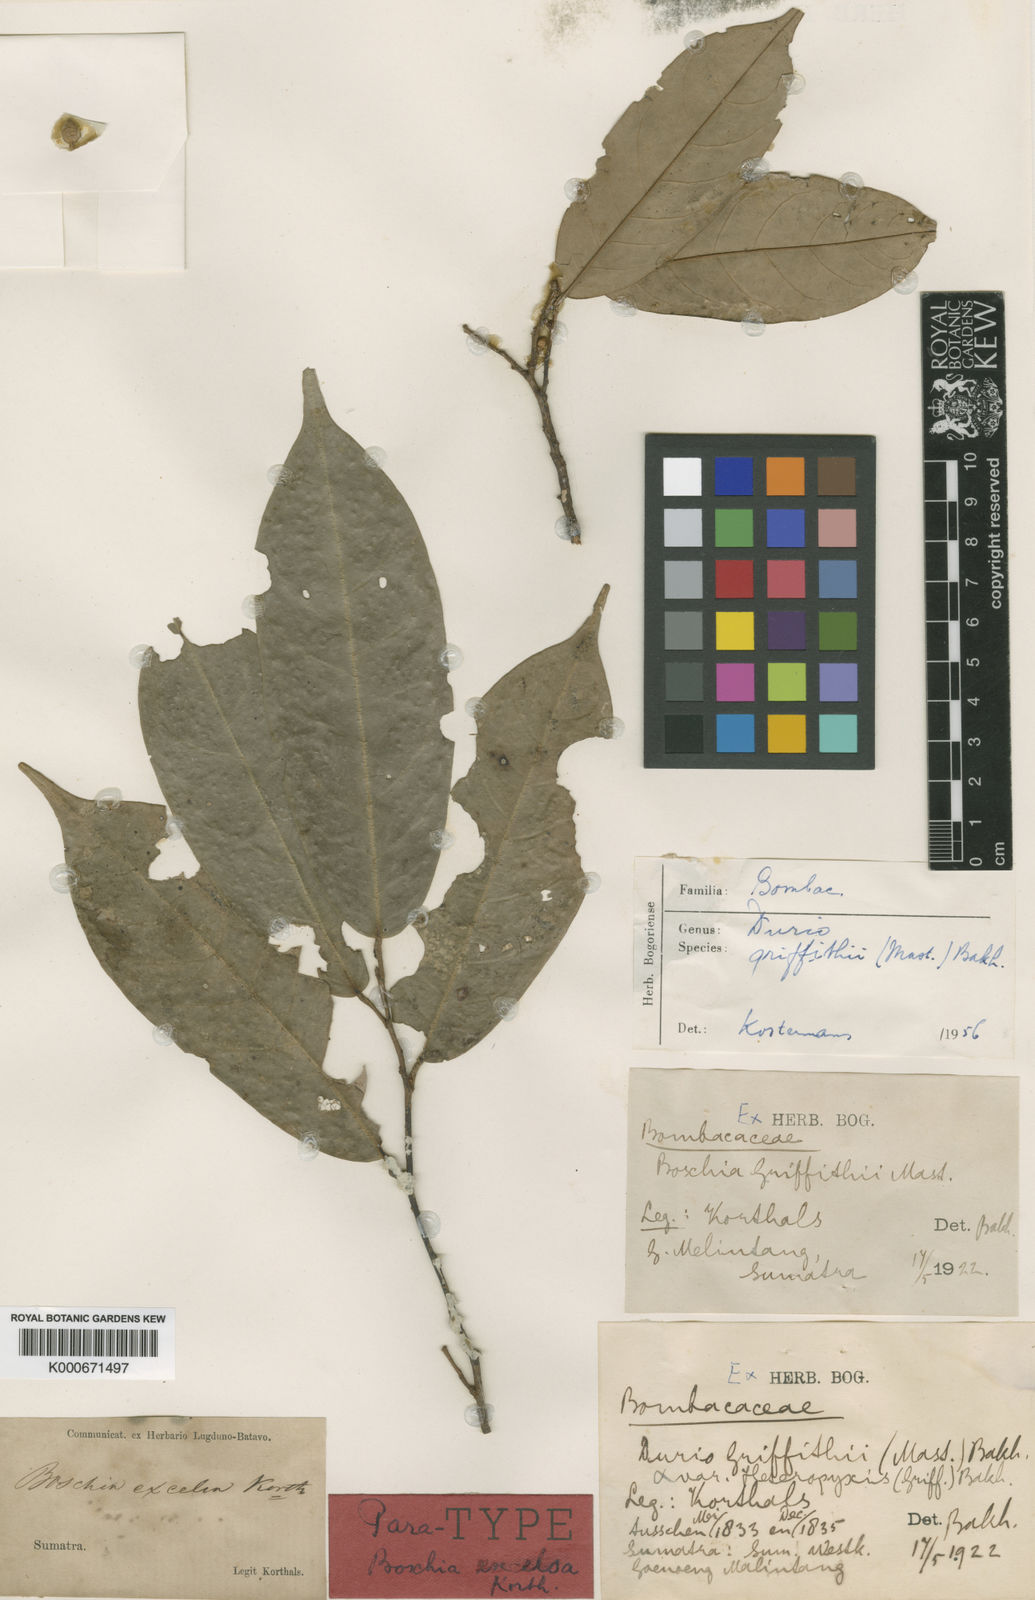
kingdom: Plantae
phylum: Tracheophyta
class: Magnoliopsida
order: Malvales
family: Malvaceae
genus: Boschia
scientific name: Boschia griffithii
